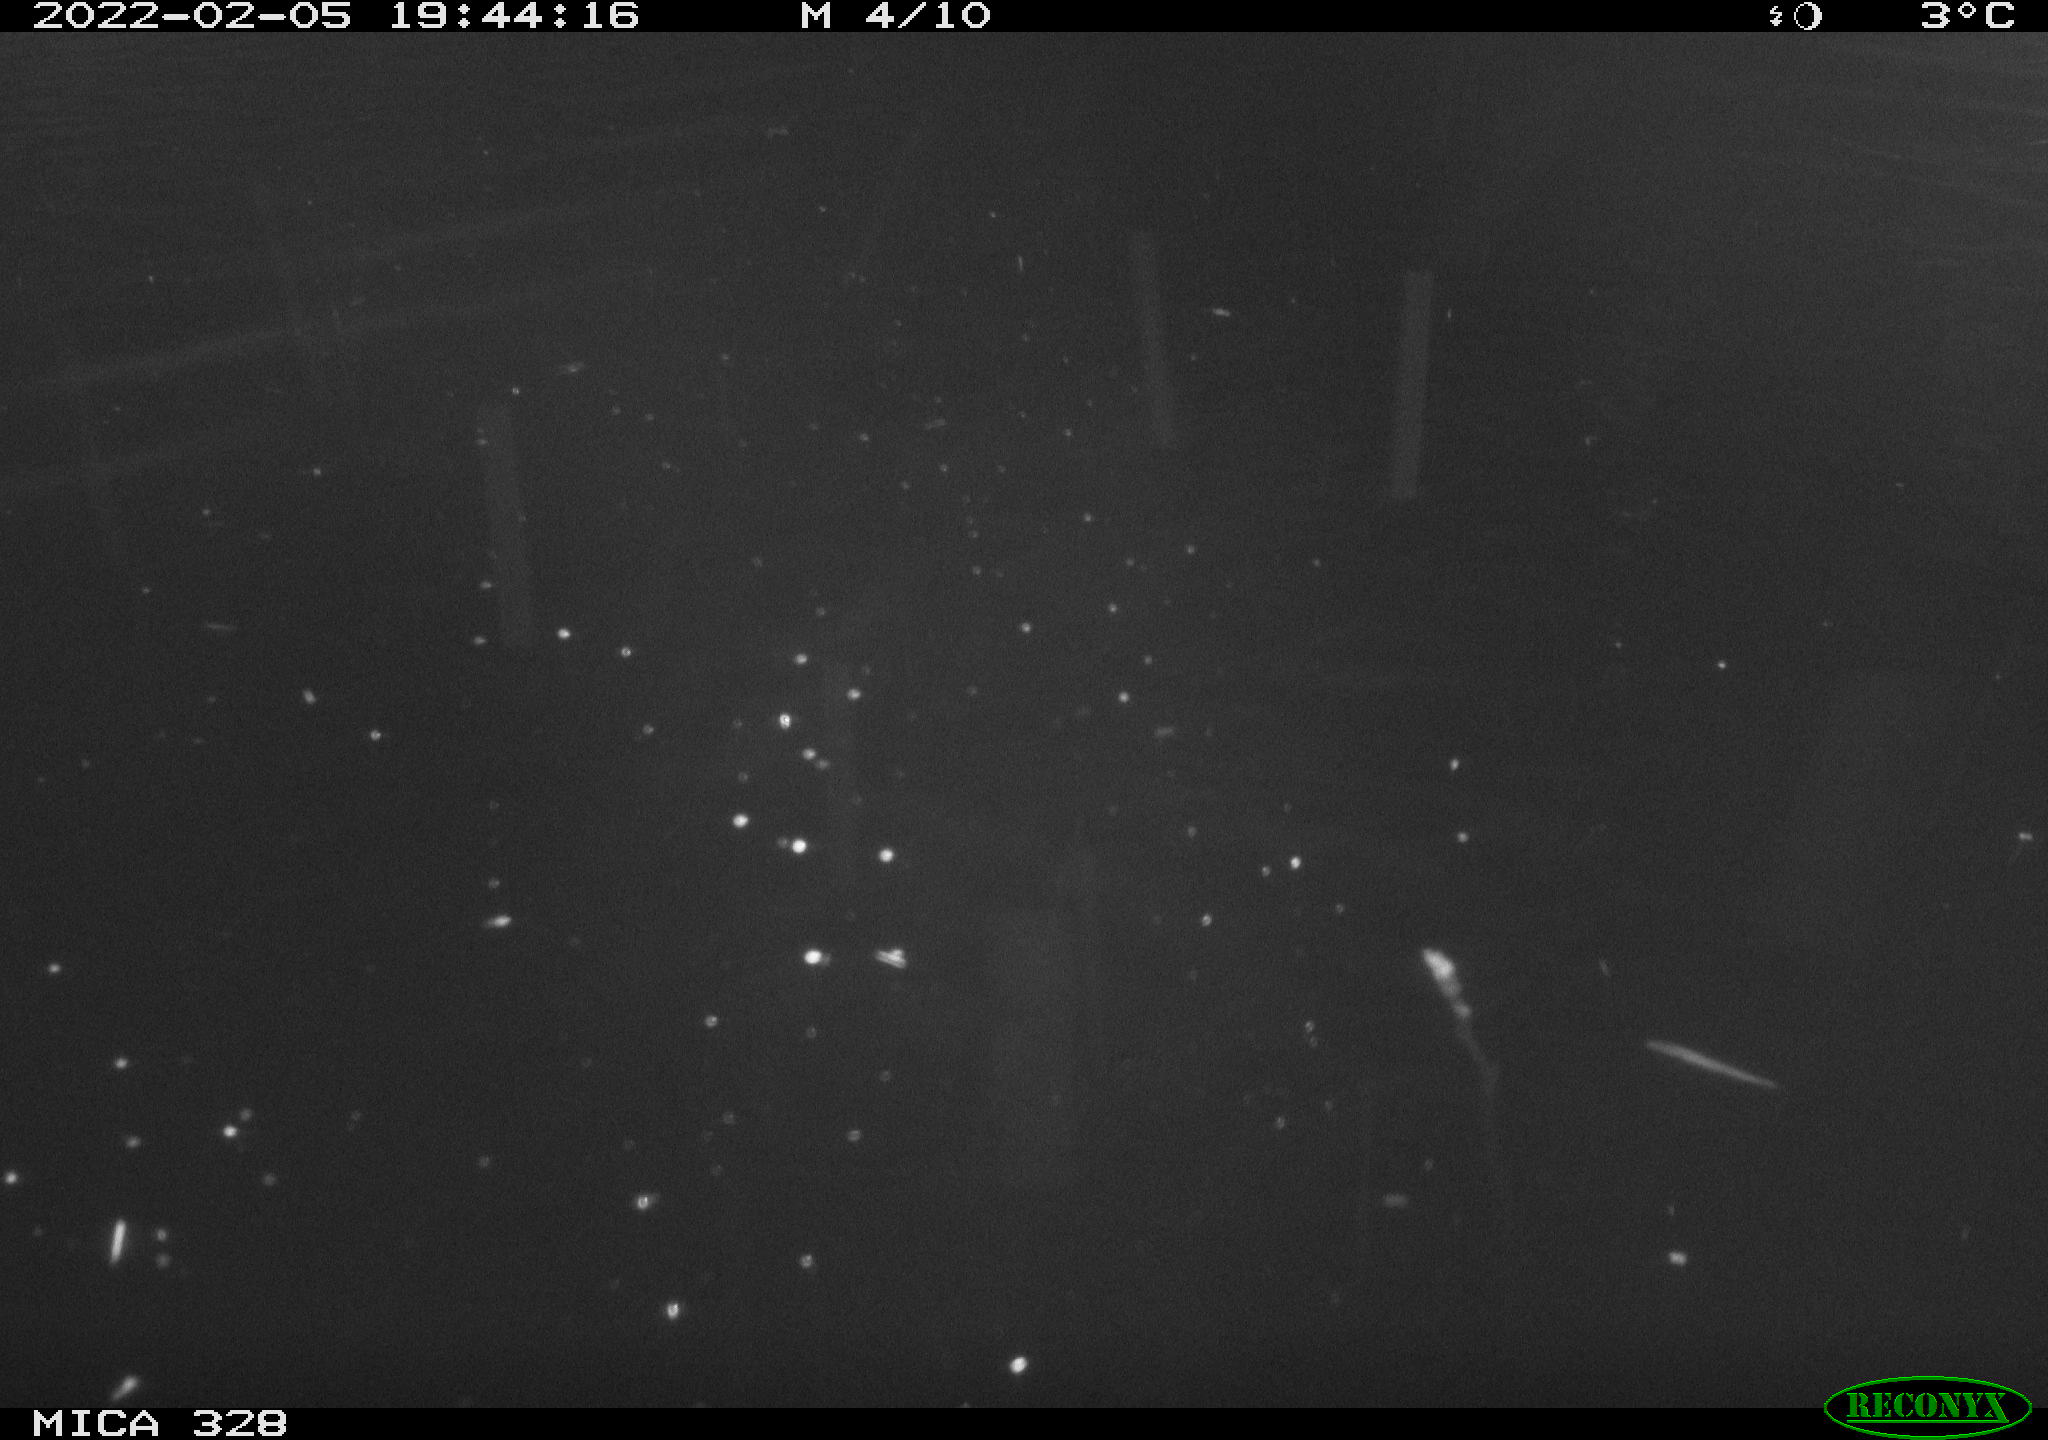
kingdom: Animalia
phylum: Chordata
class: Mammalia
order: Rodentia
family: Cricetidae
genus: Ondatra
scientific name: Ondatra zibethicus
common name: Muskrat
